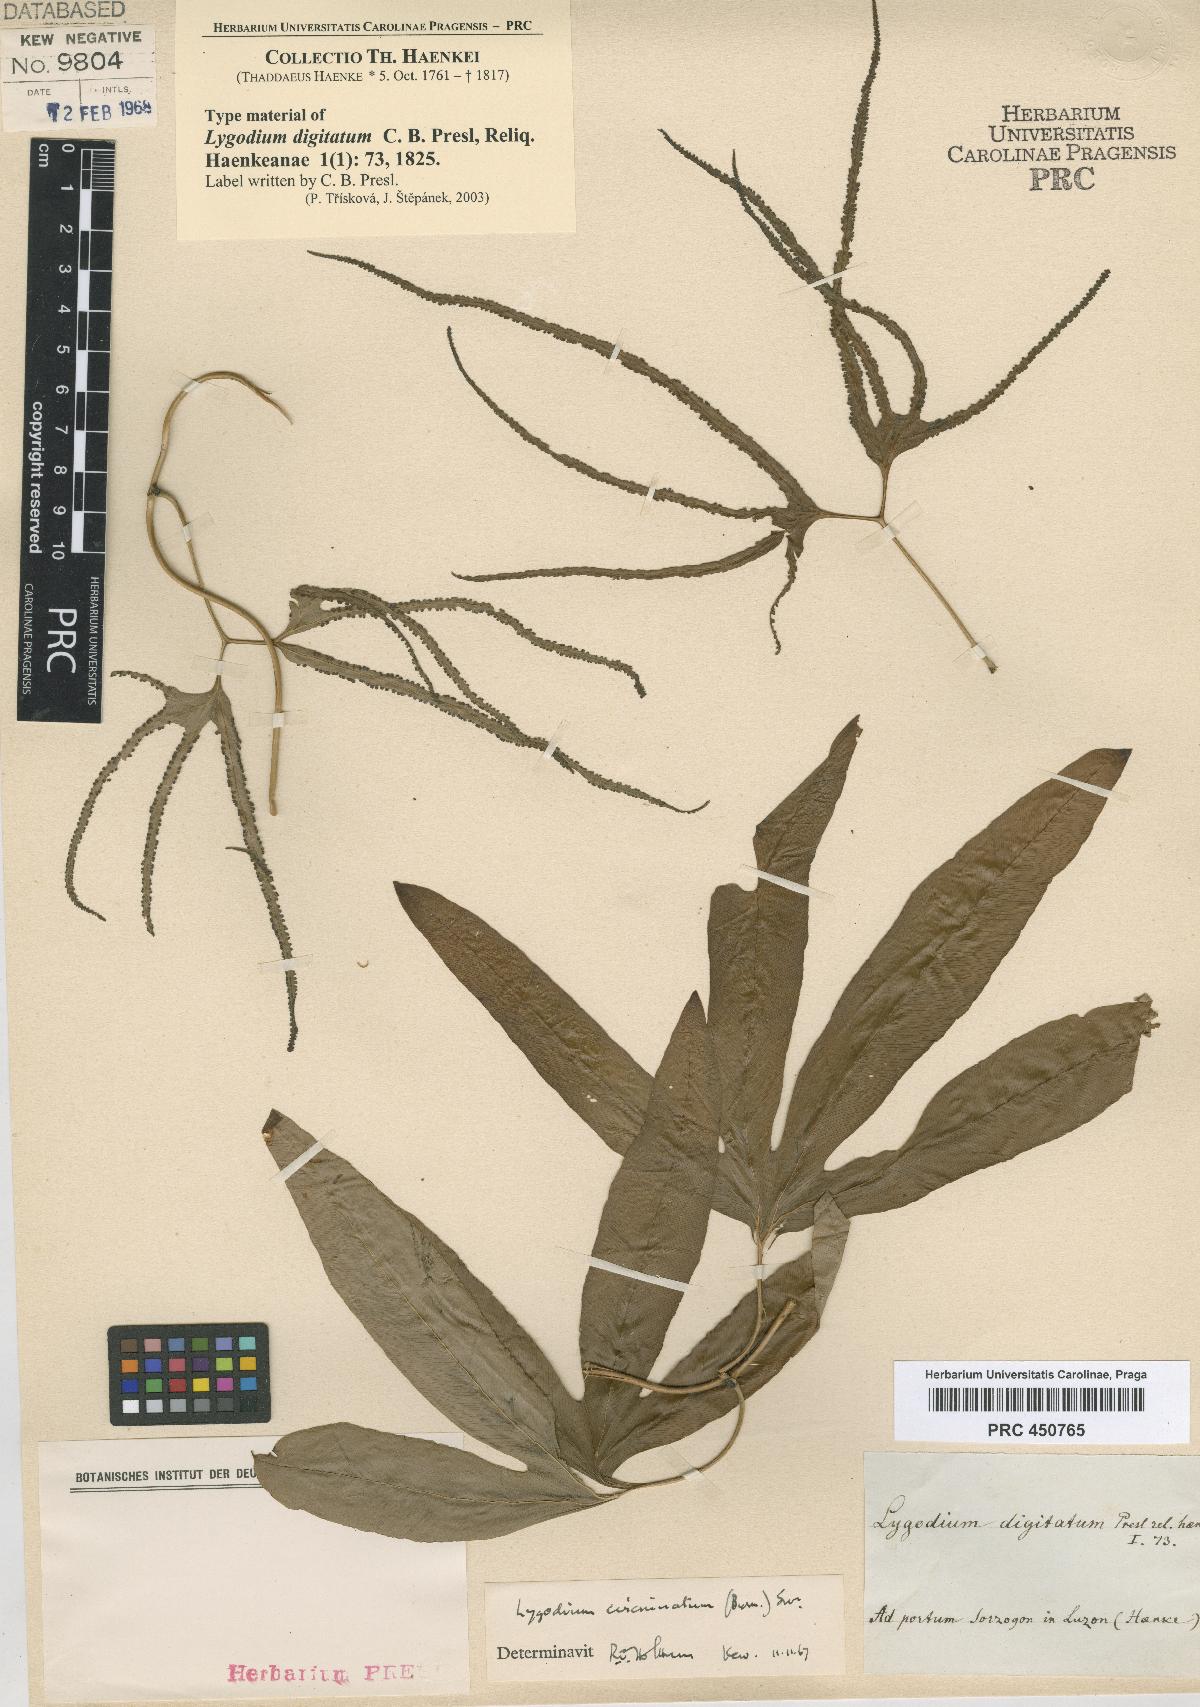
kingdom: Plantae
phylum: Tracheophyta
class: Polypodiopsida
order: Schizaeales
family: Lygodiaceae
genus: Lygodium
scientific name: Lygodium longifolium
